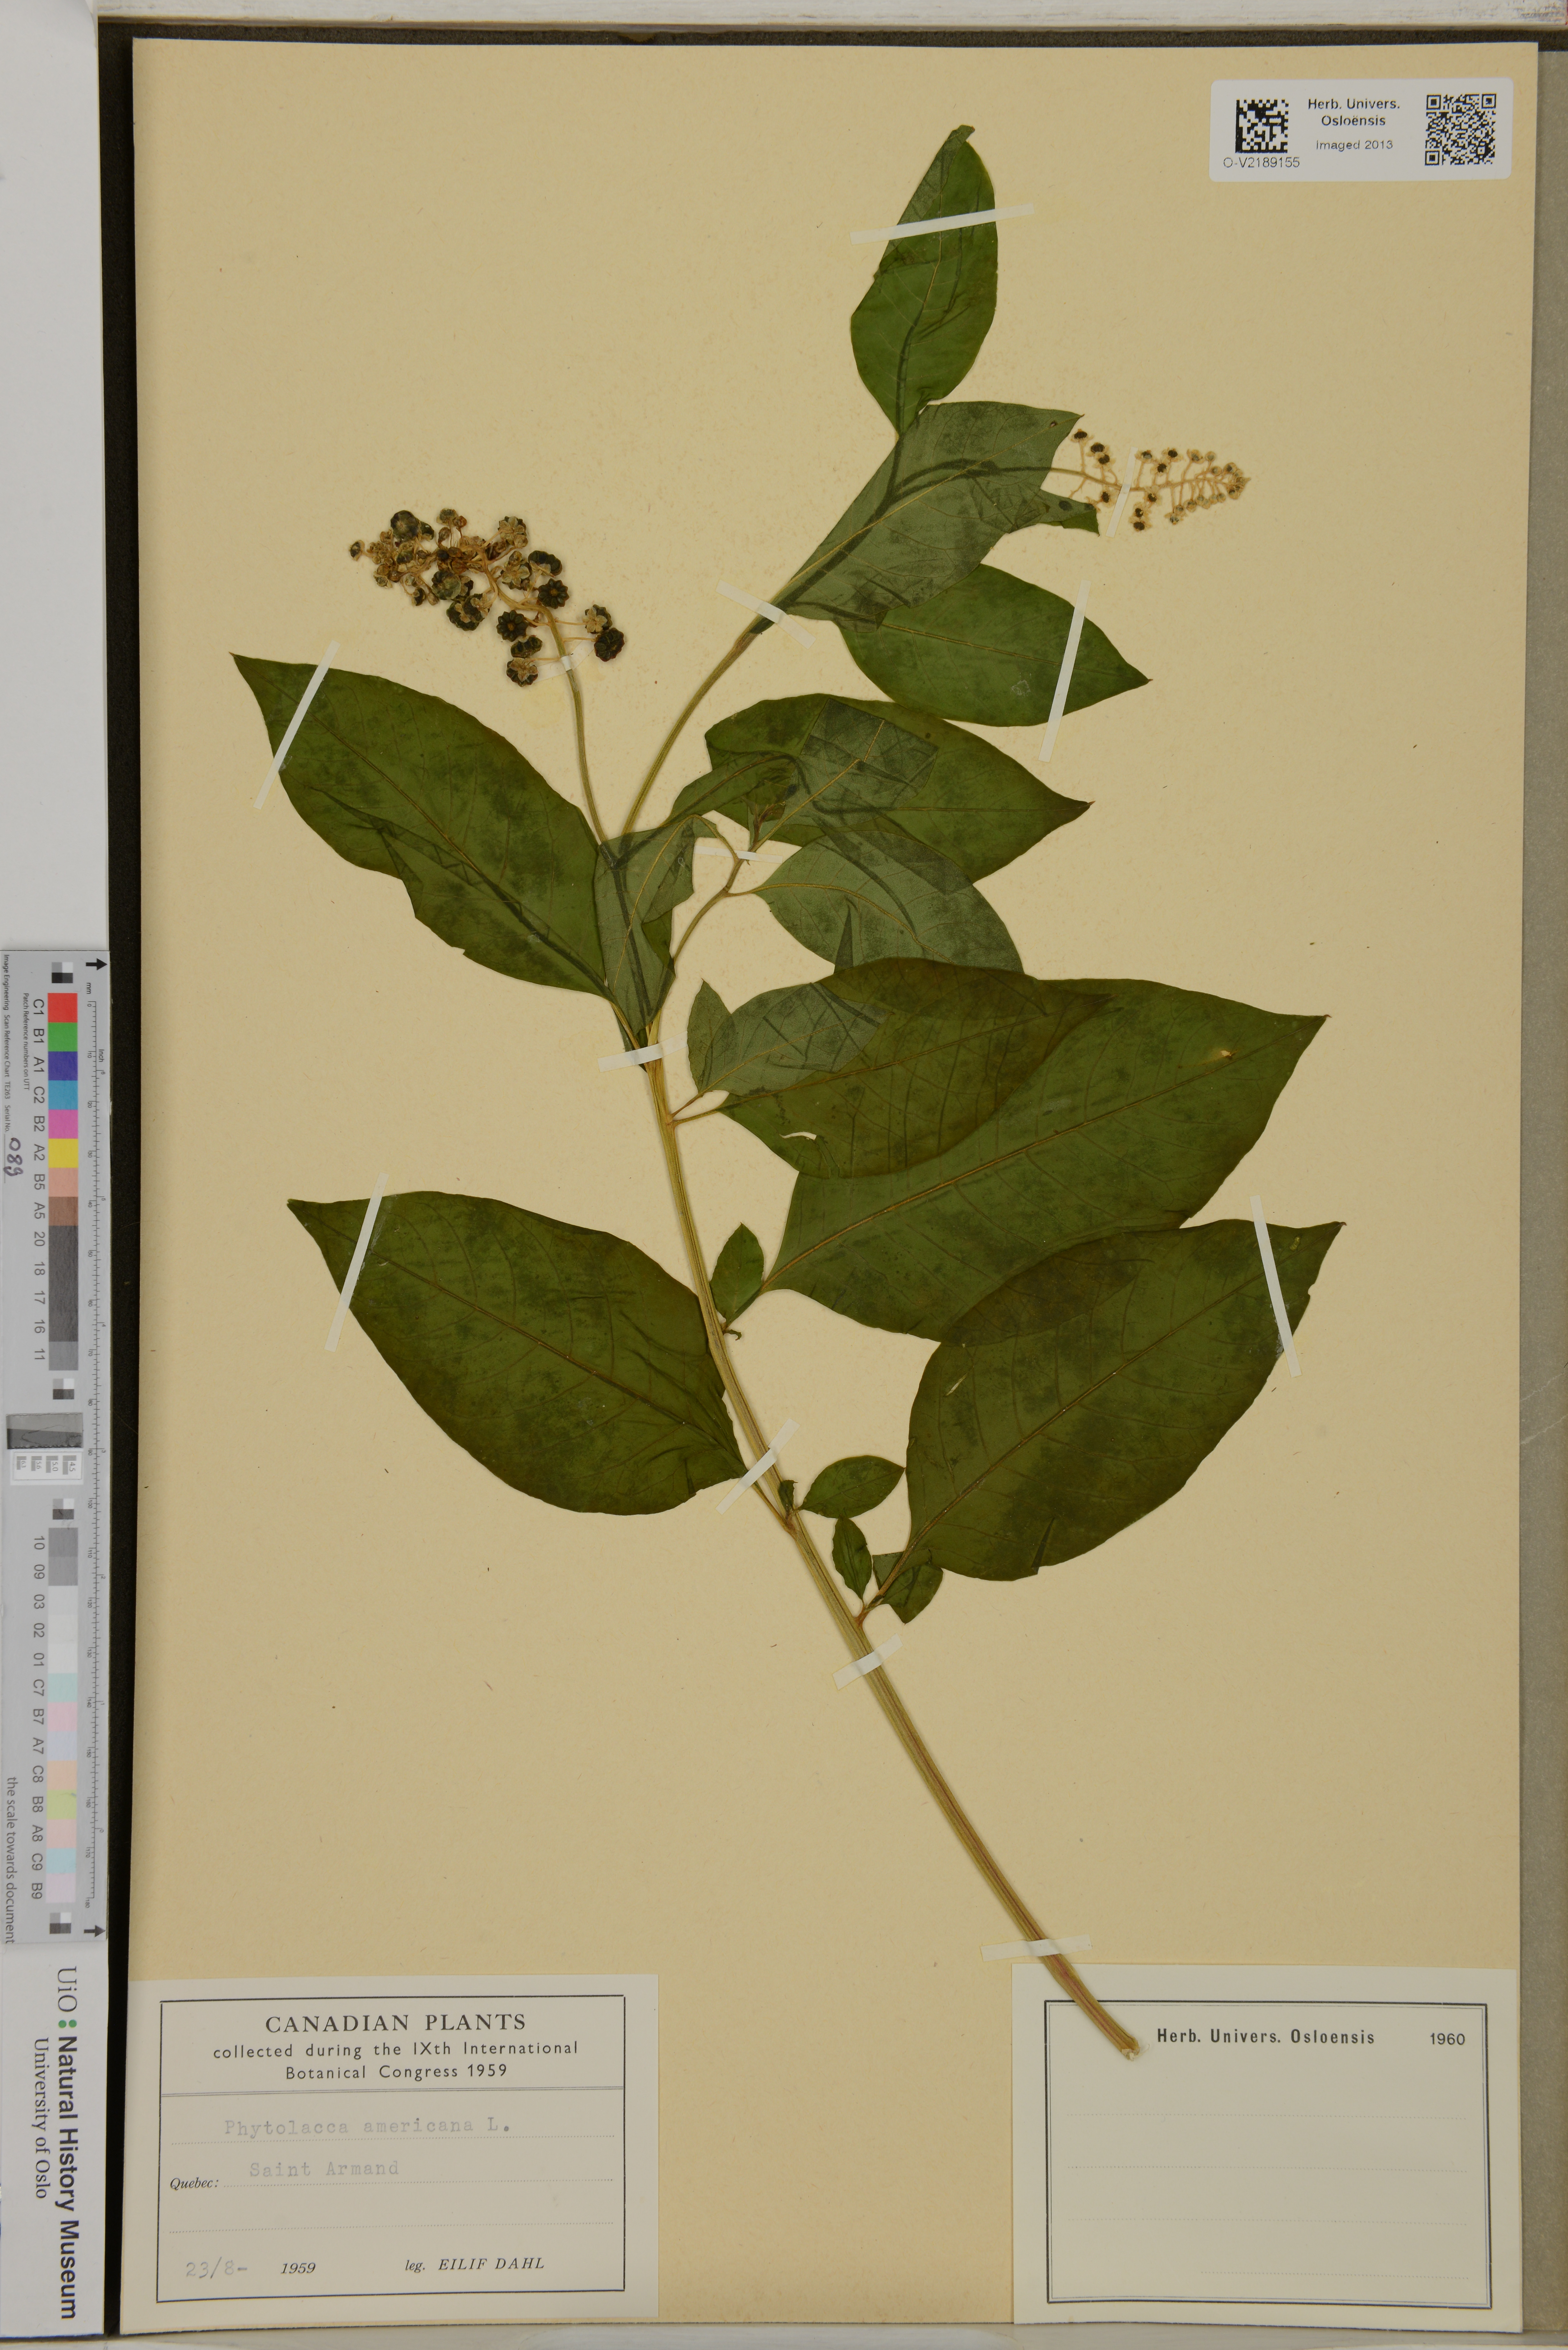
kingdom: Plantae
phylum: Tracheophyta
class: Magnoliopsida
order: Caryophyllales
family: Phytolaccaceae
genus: Phytolacca
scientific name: Phytolacca americana
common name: American pokeweed
